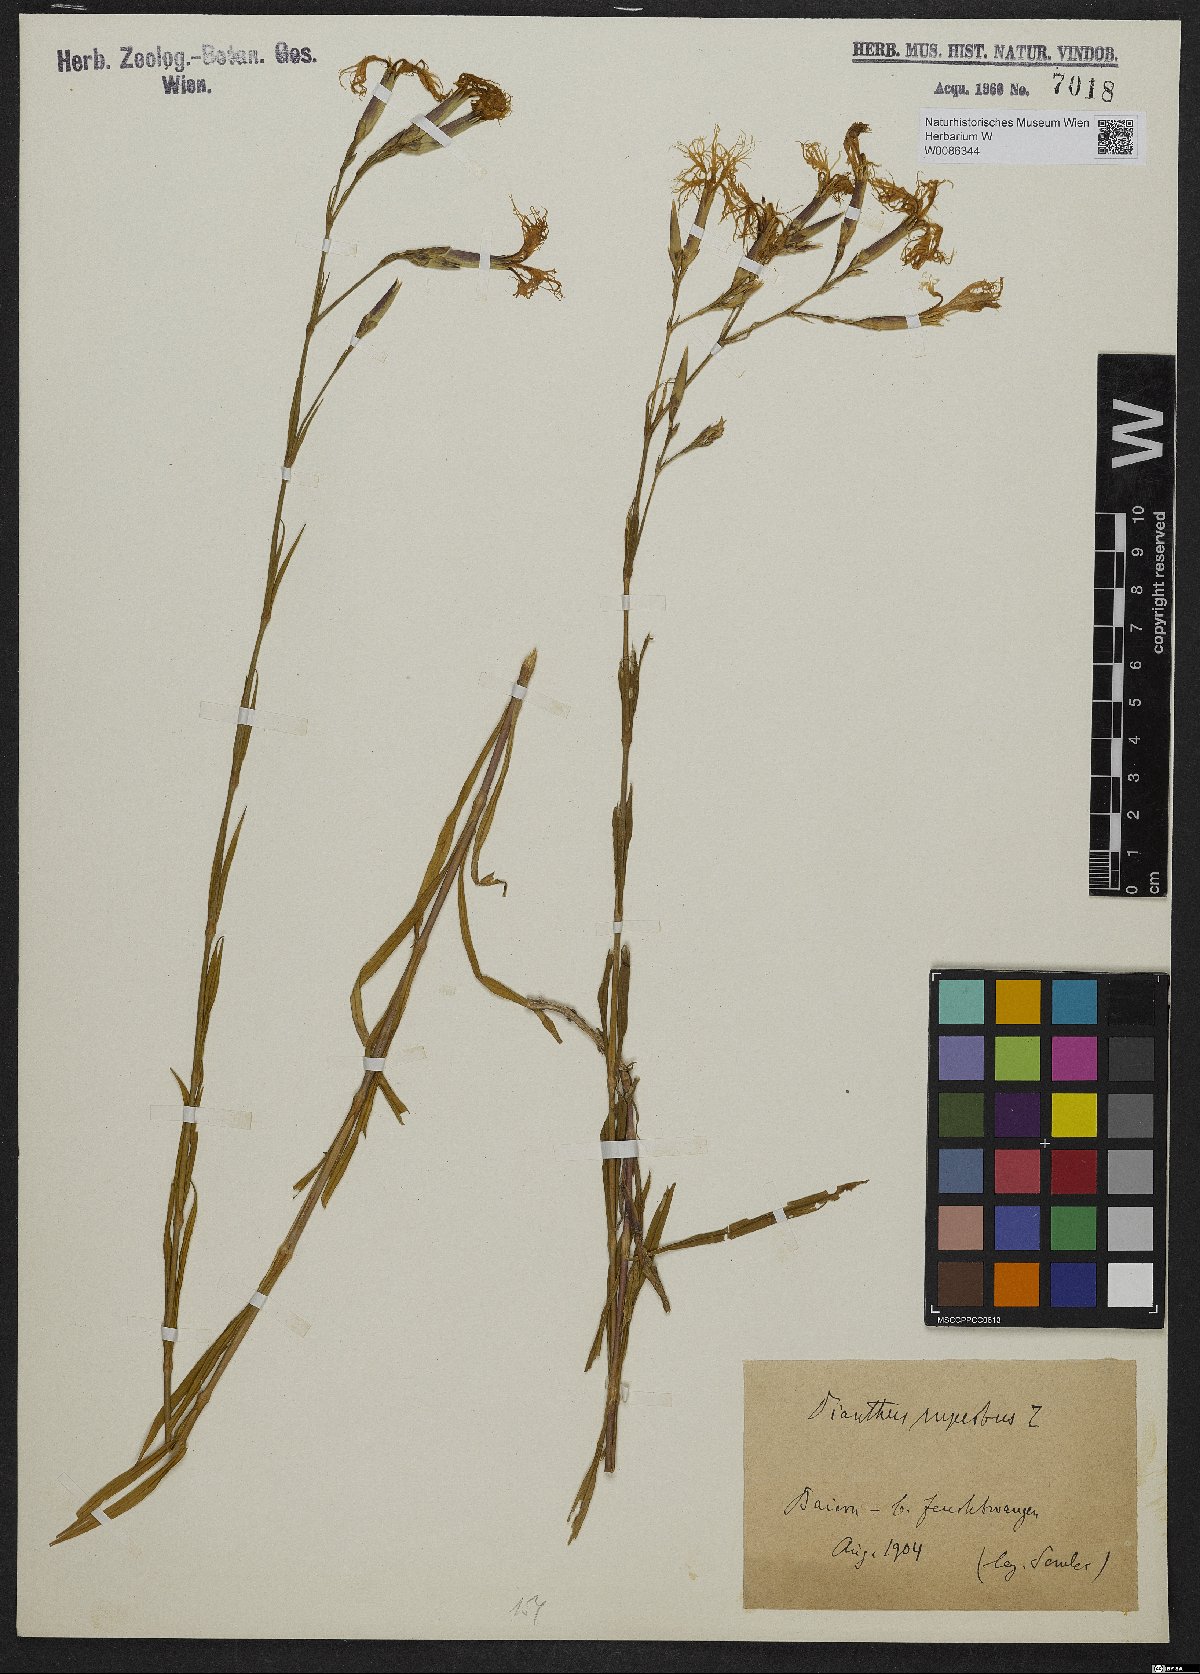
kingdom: Plantae
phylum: Tracheophyta
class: Magnoliopsida
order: Caryophyllales
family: Caryophyllaceae
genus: Dianthus
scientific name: Dianthus superbus
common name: Fringed pink
